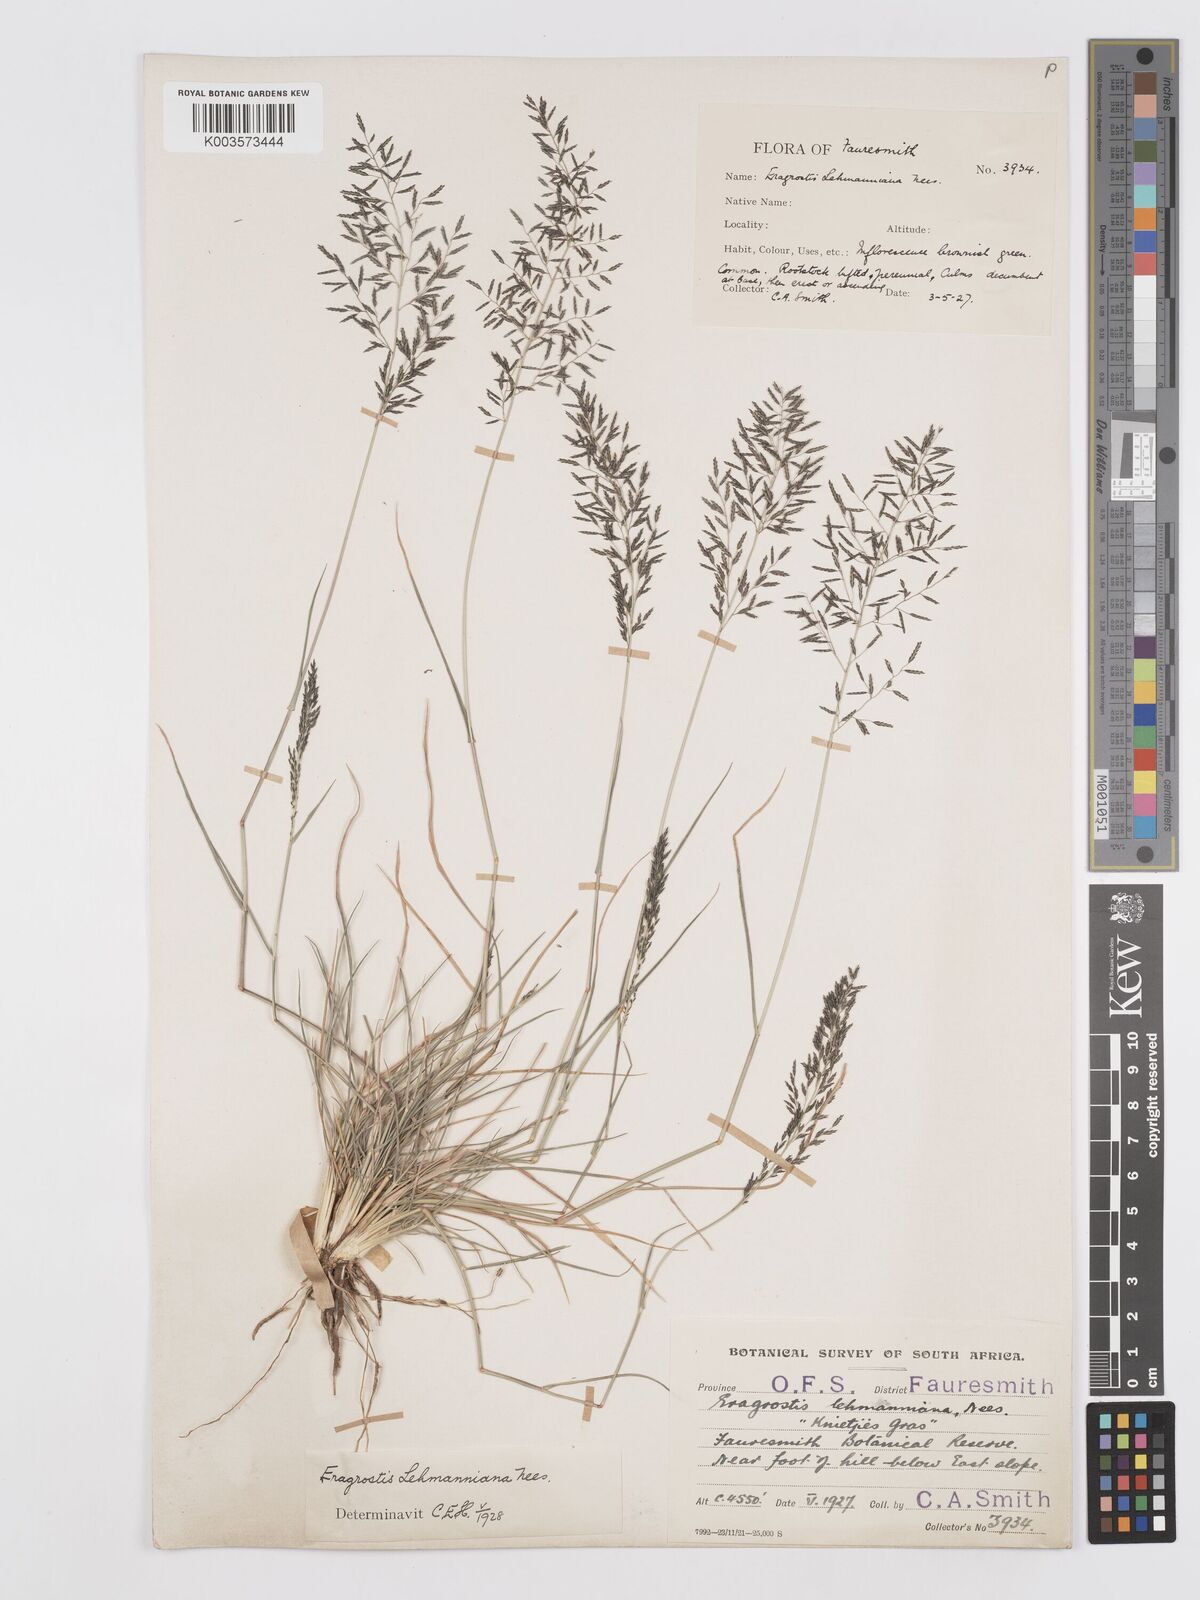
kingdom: Plantae
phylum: Tracheophyta
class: Liliopsida
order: Poales
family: Poaceae
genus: Eragrostis
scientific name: Eragrostis lehmanniana
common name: Lehmann lovegrass
